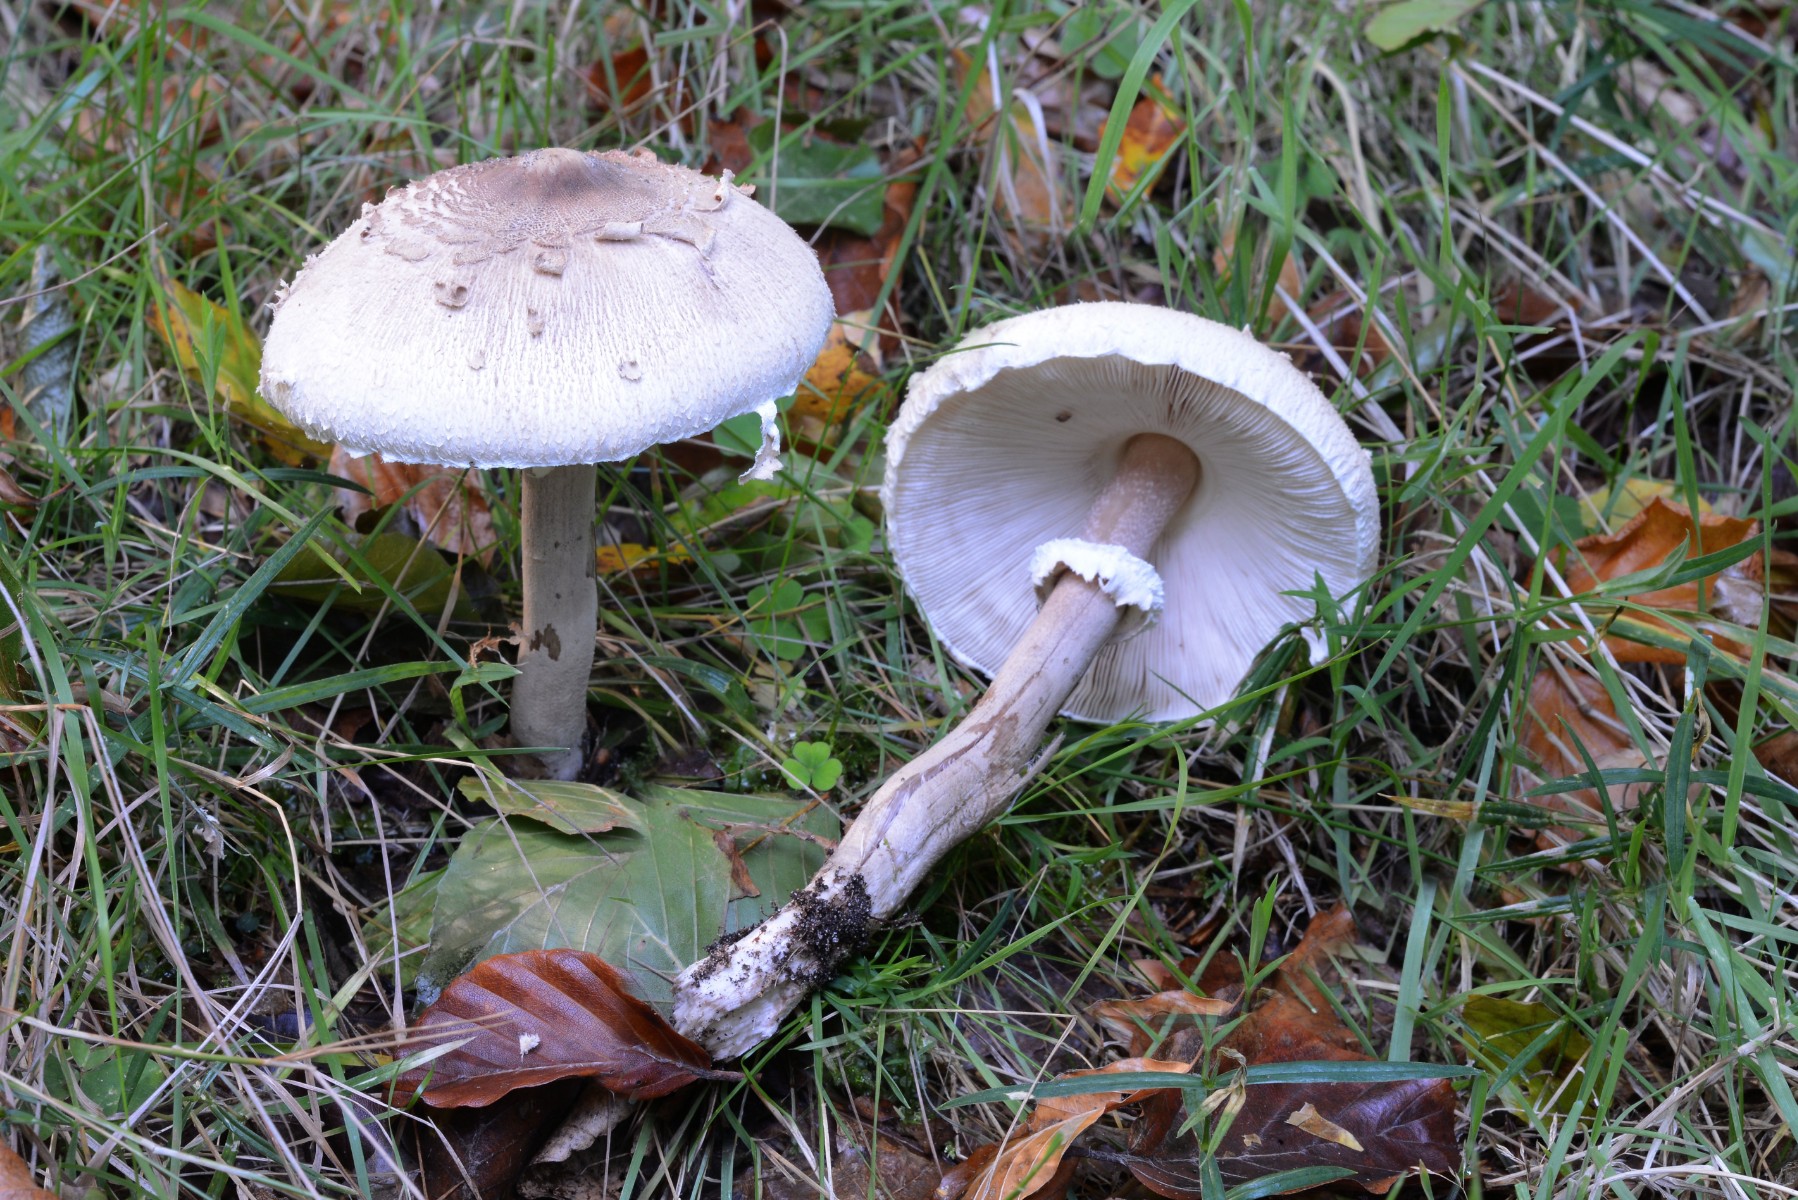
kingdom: Fungi
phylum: Basidiomycota
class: Agaricomycetes
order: Agaricales
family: Agaricaceae
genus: Macrolepiota
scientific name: Macrolepiota mastoidea
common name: puklet kæmpeparasolhat
